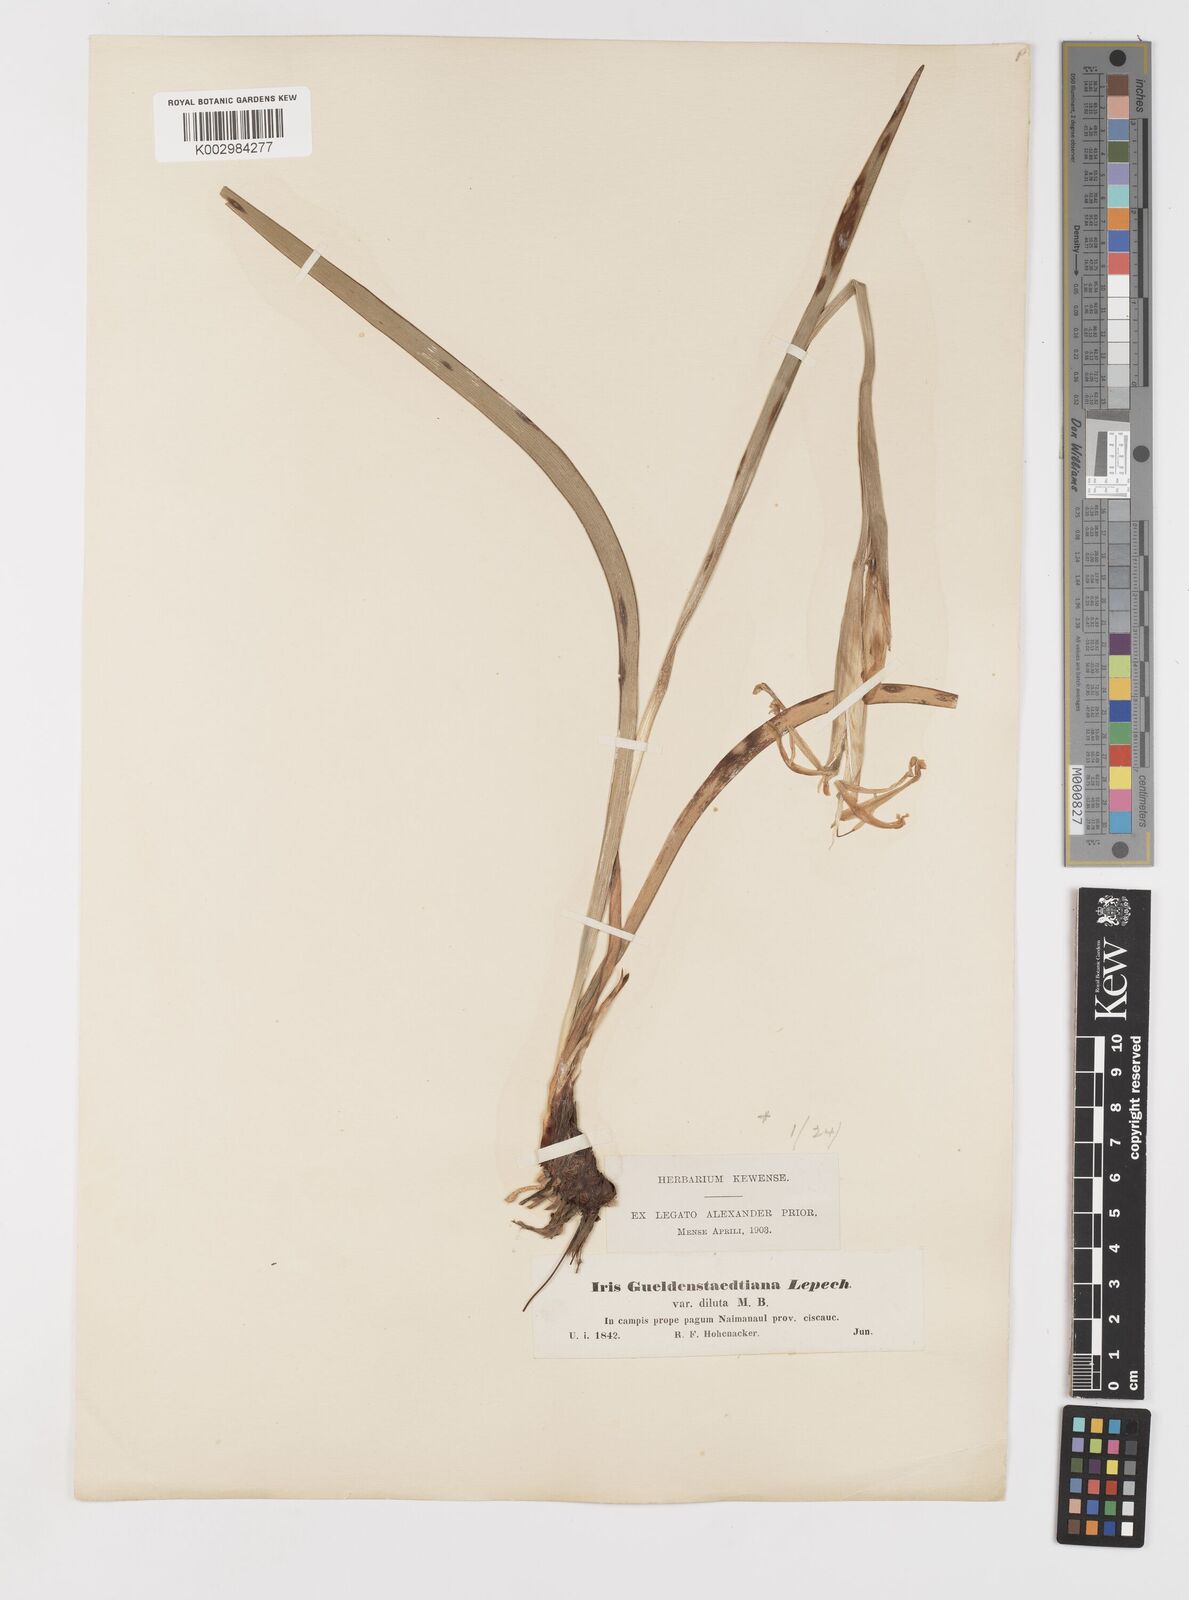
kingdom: Plantae
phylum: Tracheophyta
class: Liliopsida
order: Asparagales
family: Iridaceae
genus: Iris
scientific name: Iris spuria
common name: Blue iris
